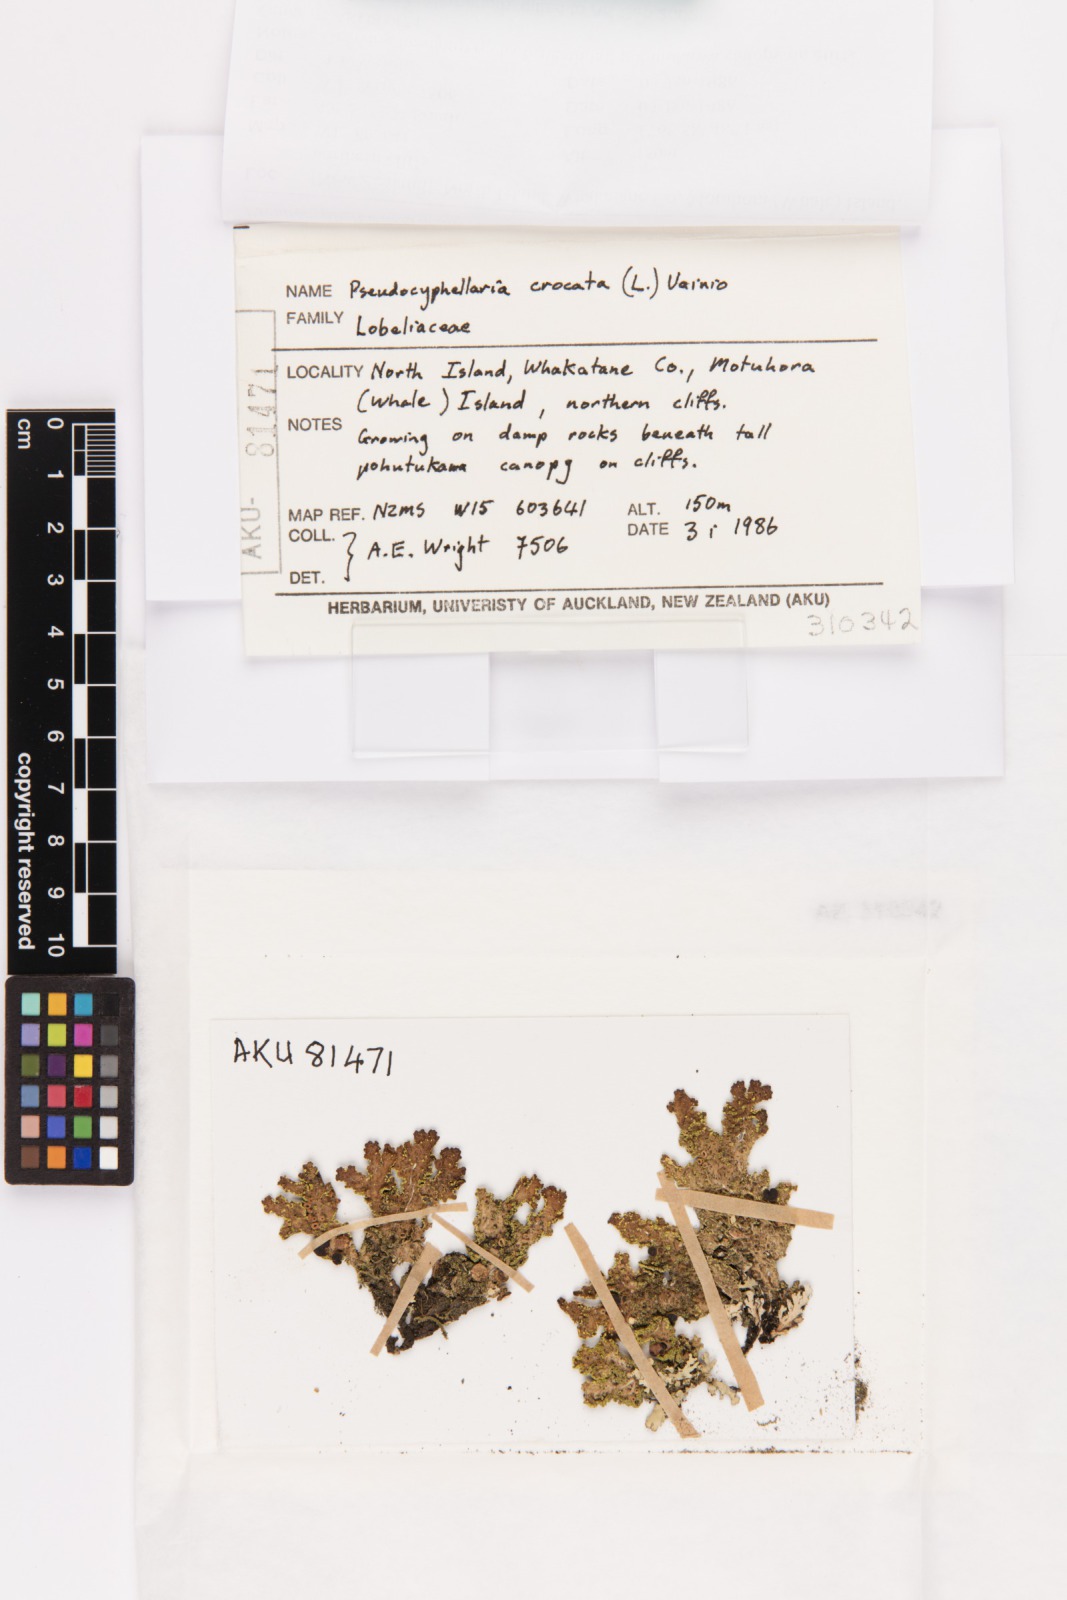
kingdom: Fungi
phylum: Ascomycota
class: Lecanoromycetes
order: Peltigerales
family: Lobariaceae
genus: Pseudocyphellaria
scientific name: Pseudocyphellaria crocata
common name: Golden specklebelly
